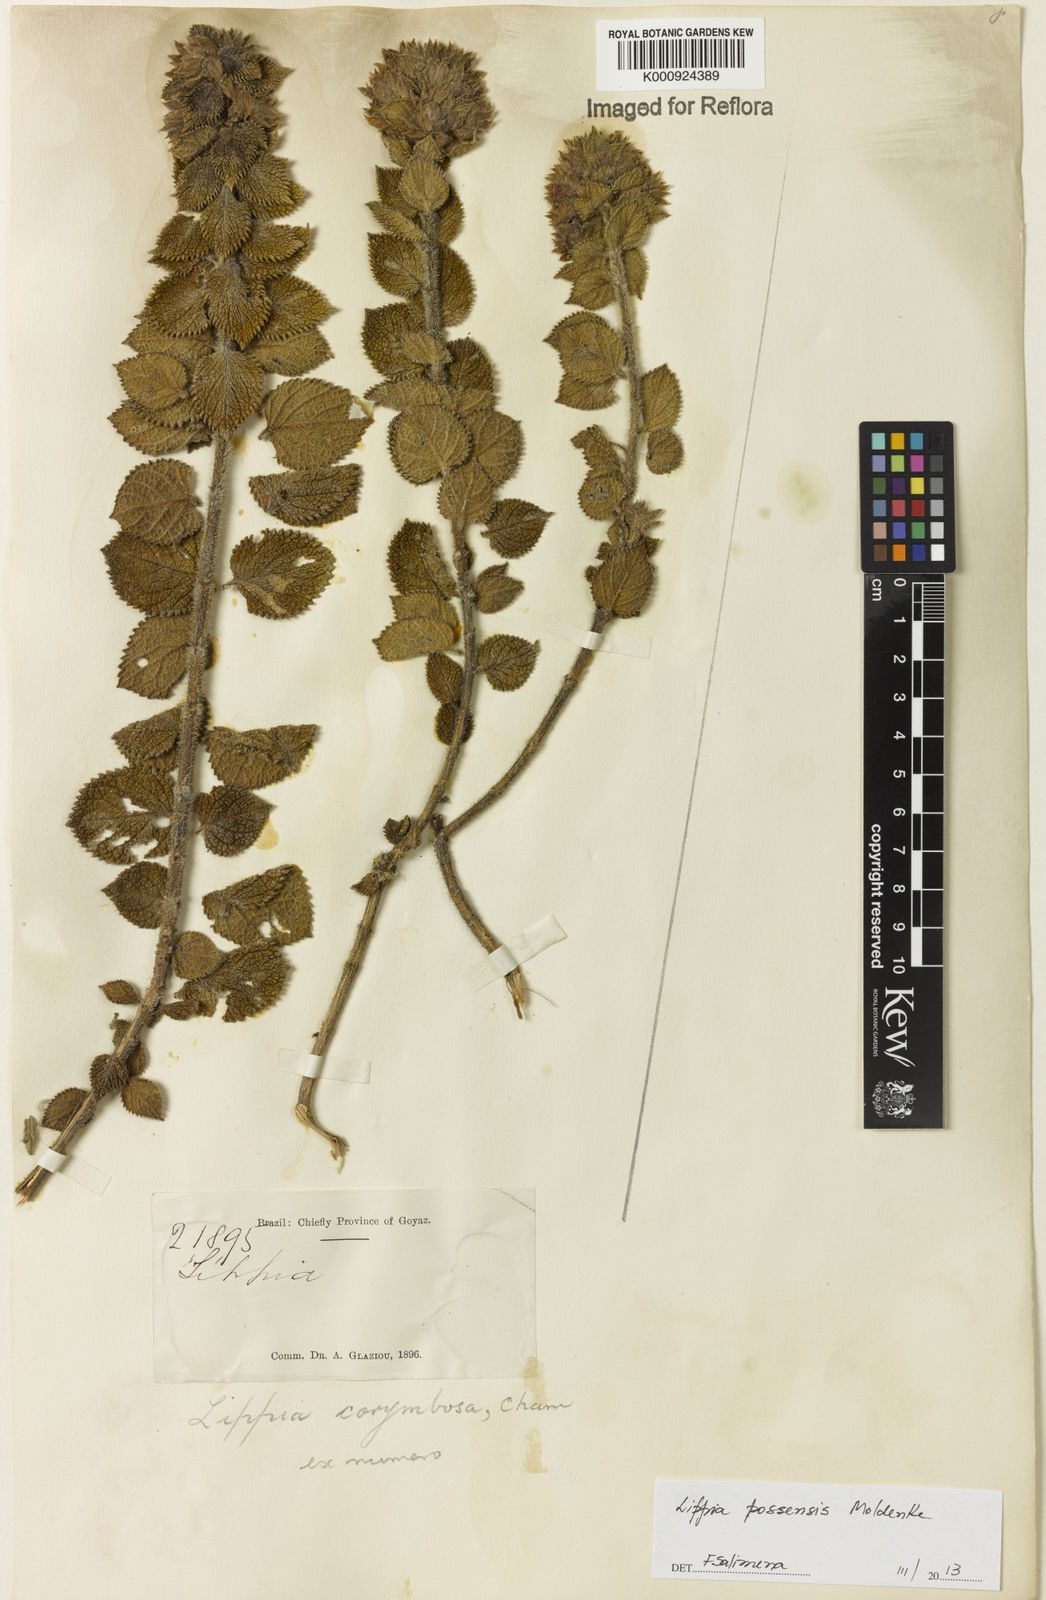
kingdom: Plantae
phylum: Tracheophyta
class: Magnoliopsida
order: Lamiales
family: Verbenaceae
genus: Lippia
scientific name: Lippia possensis
